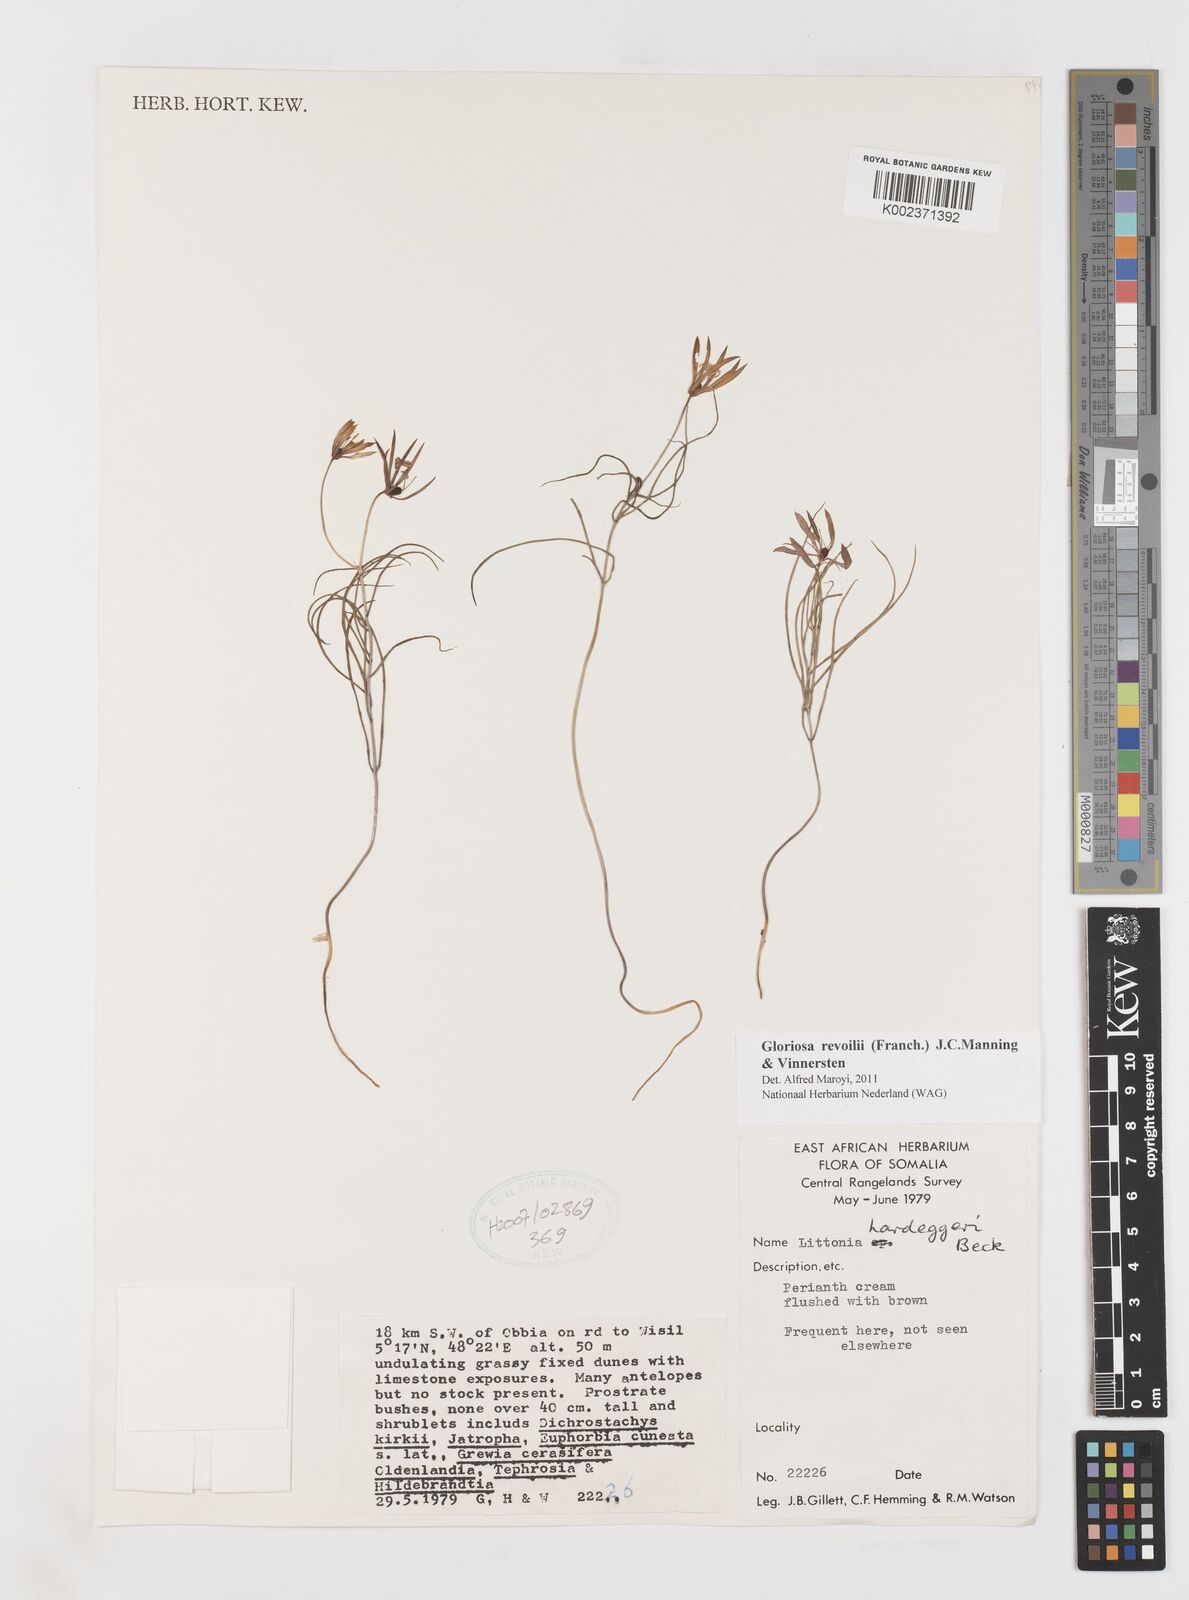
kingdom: Plantae
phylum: Tracheophyta
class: Liliopsida
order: Liliales
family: Colchicaceae
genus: Gloriosa
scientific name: Gloriosa revoilii
